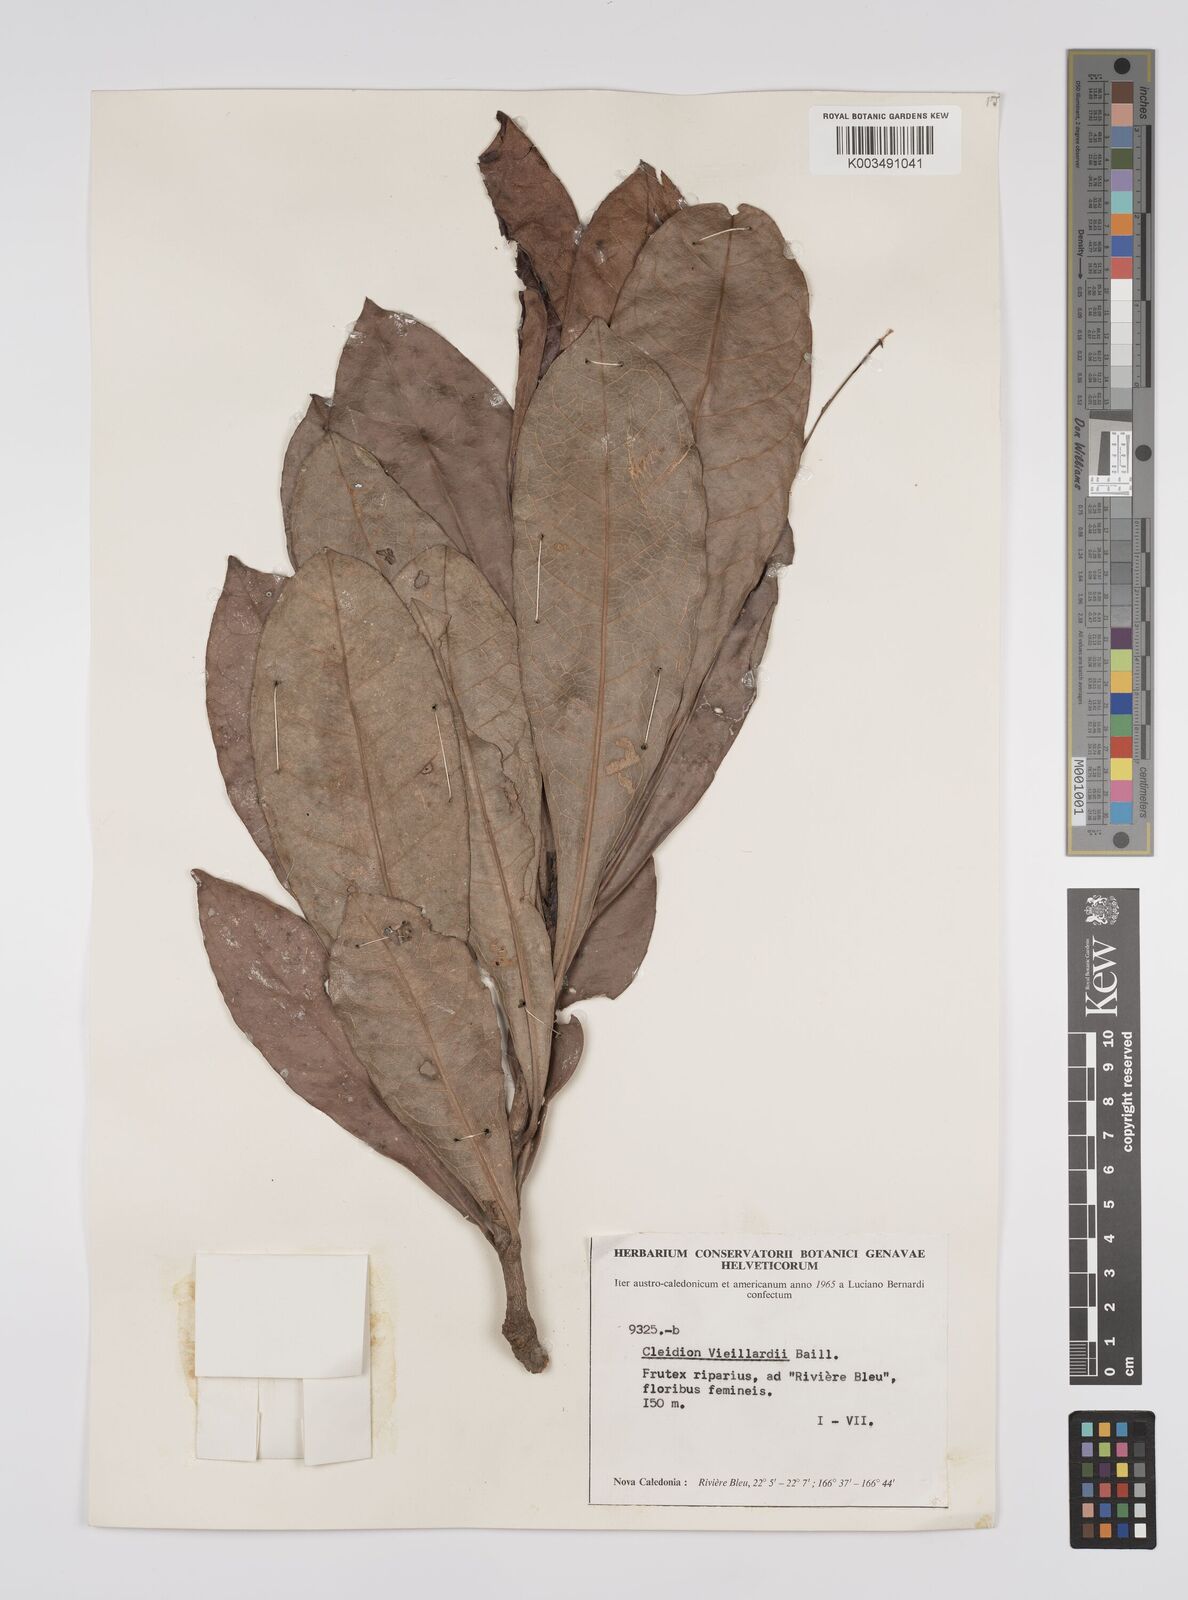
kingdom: Plantae
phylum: Tracheophyta
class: Magnoliopsida
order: Malpighiales
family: Euphorbiaceae
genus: Cleidion
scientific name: Cleidion vieillardii
